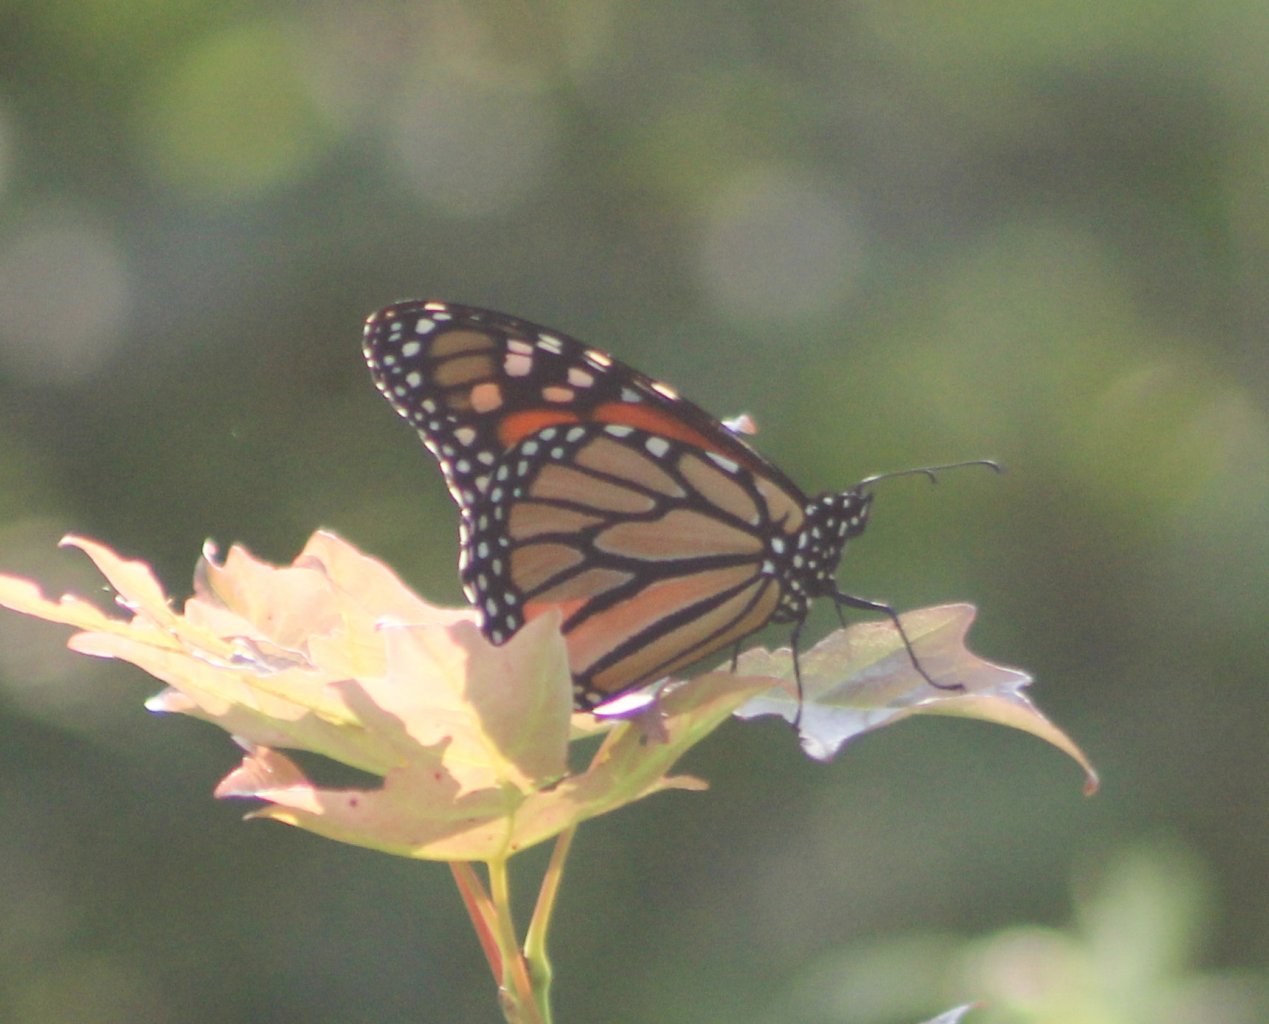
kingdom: Animalia
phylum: Arthropoda
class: Insecta
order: Lepidoptera
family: Nymphalidae
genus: Danaus
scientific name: Danaus plexippus
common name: Monarch
